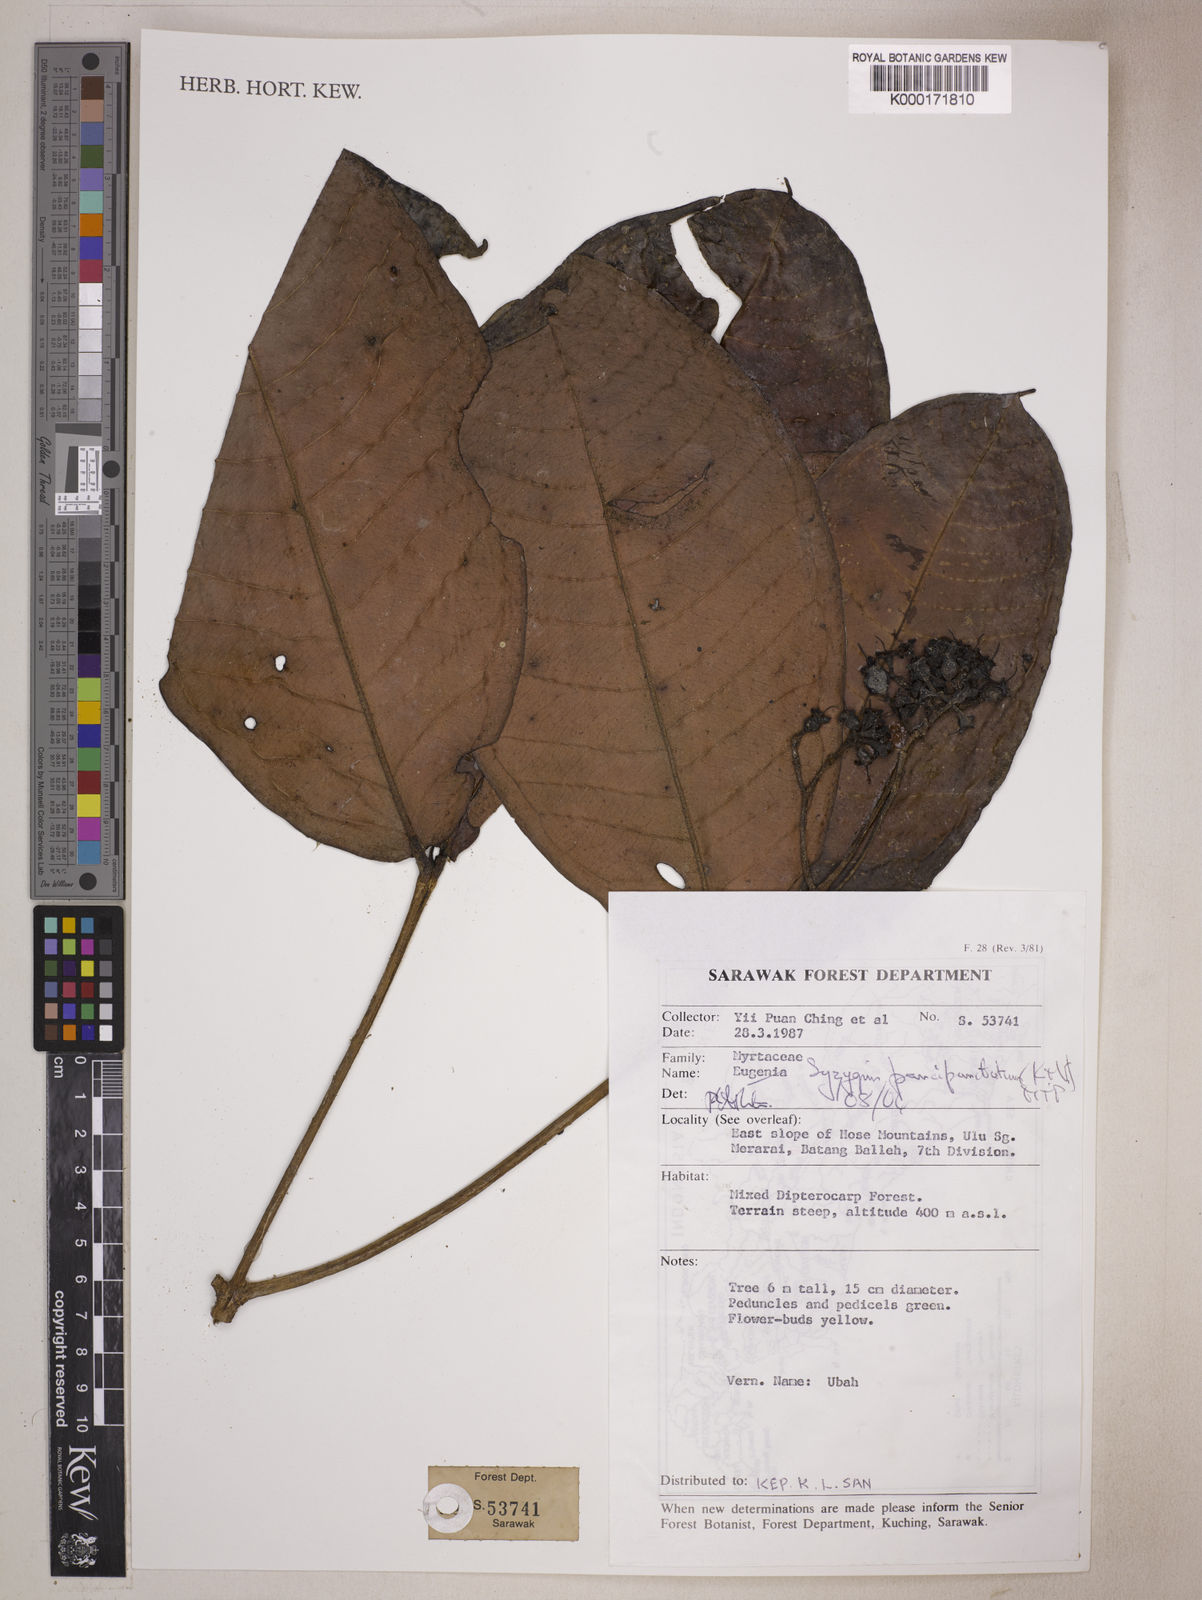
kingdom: Plantae
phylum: Tracheophyta
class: Magnoliopsida
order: Myrtales
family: Myrtaceae
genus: Syzygium
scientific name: Syzygium paucipunctatum
